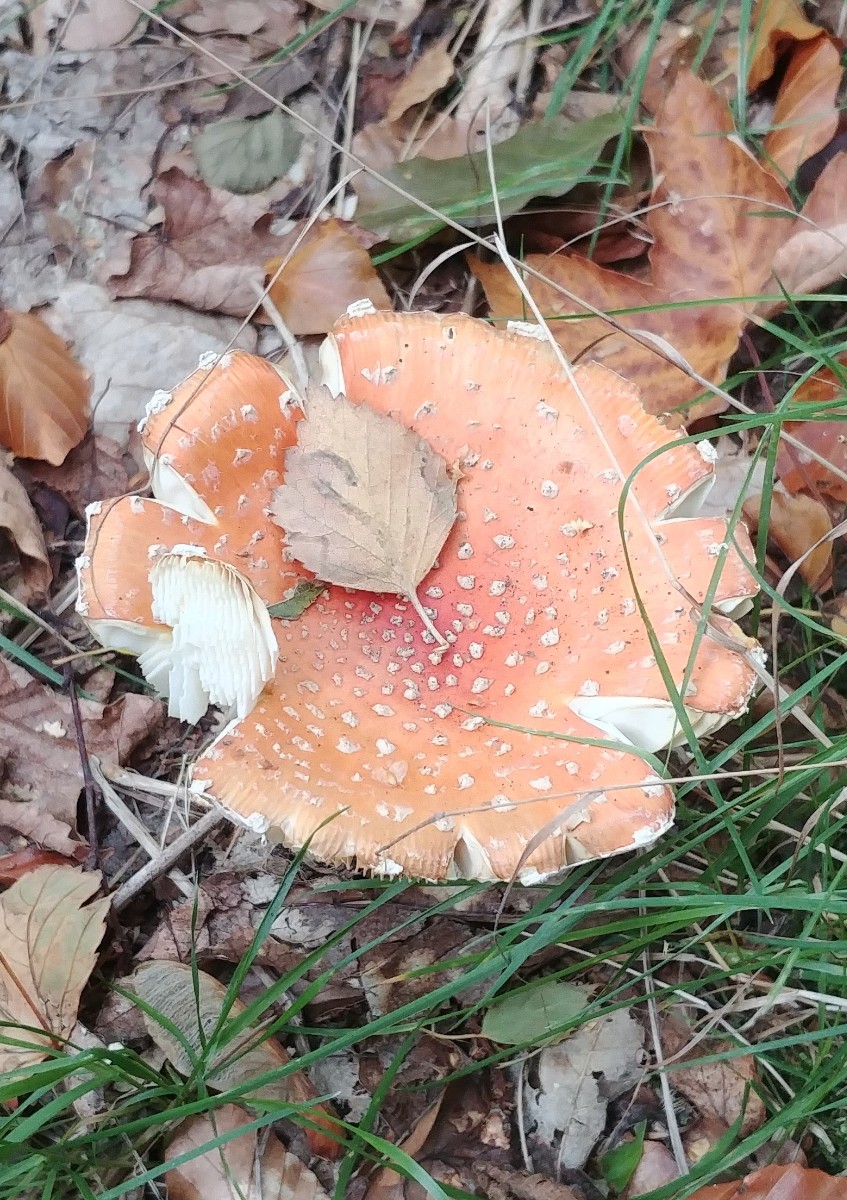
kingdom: Fungi
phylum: Basidiomycota
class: Agaricomycetes
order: Agaricales
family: Amanitaceae
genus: Amanita
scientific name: Amanita muscaria
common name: rød fluesvamp
